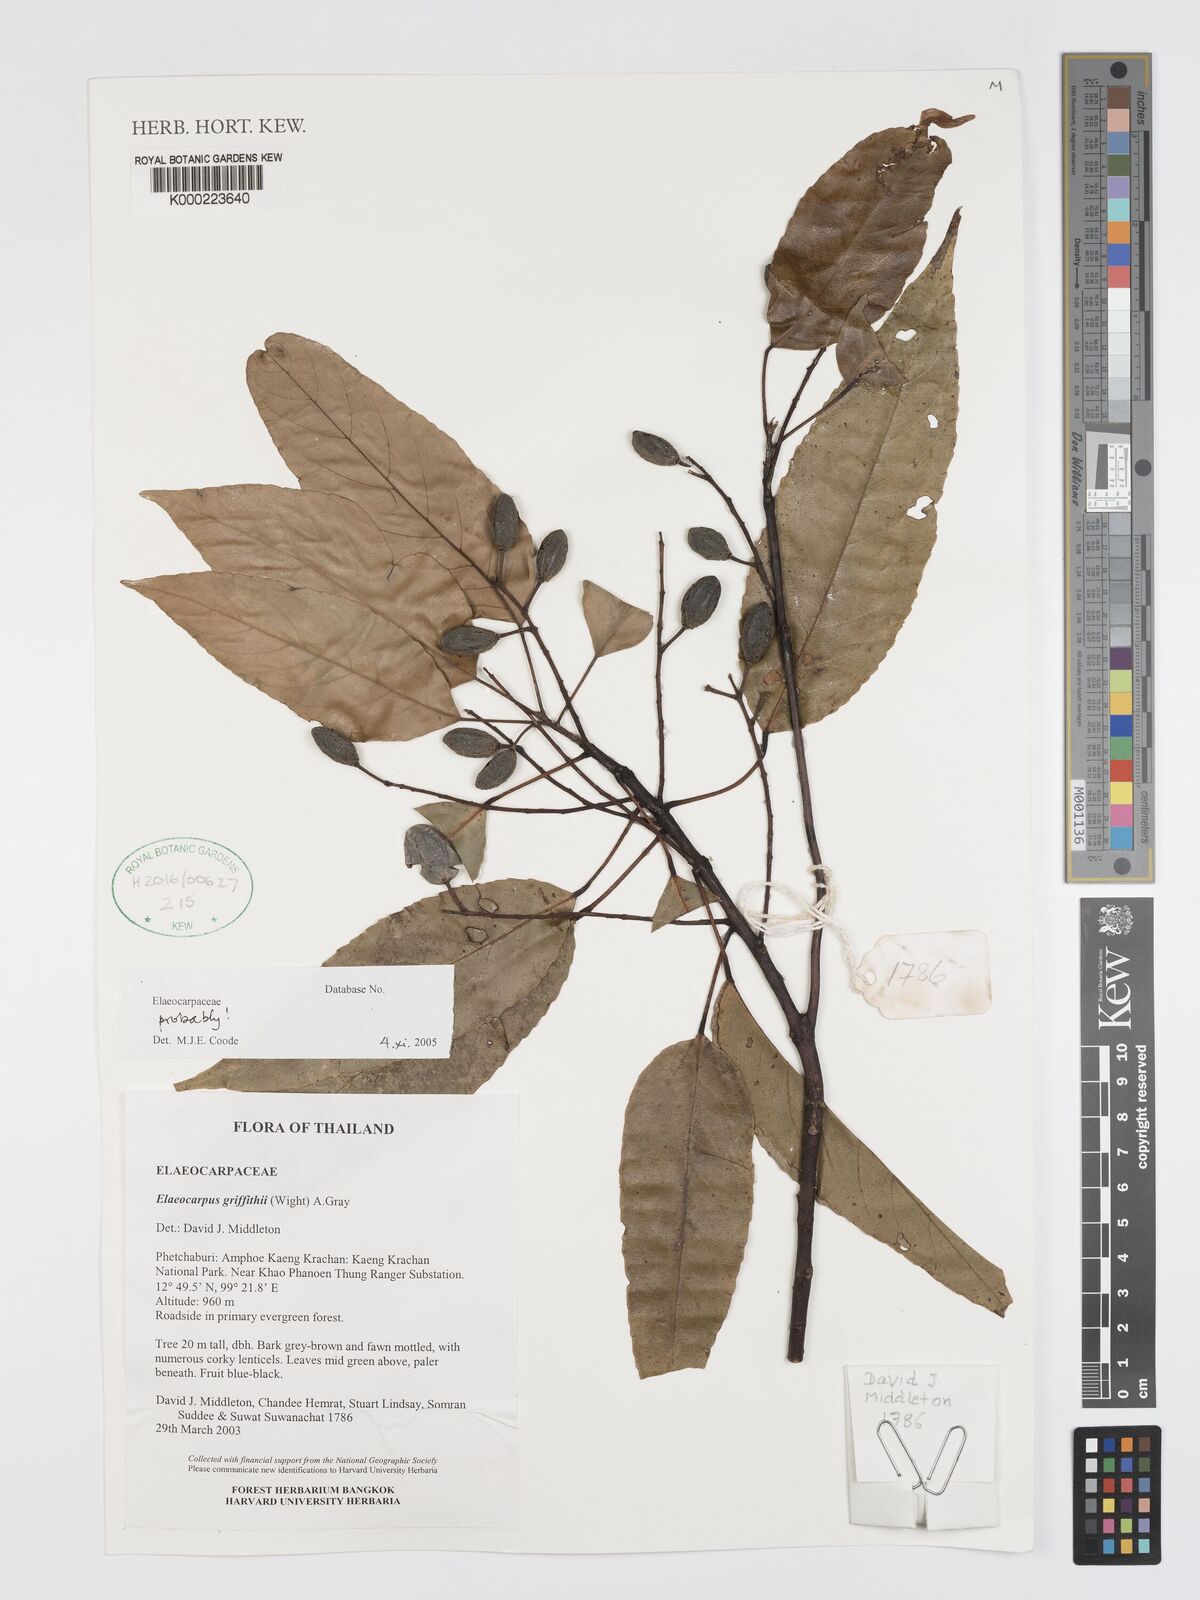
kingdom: Plantae
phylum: Tracheophyta
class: Magnoliopsida
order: Oxalidales
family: Elaeocarpaceae
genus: Elaeocarpus
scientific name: Elaeocarpus griffithii
